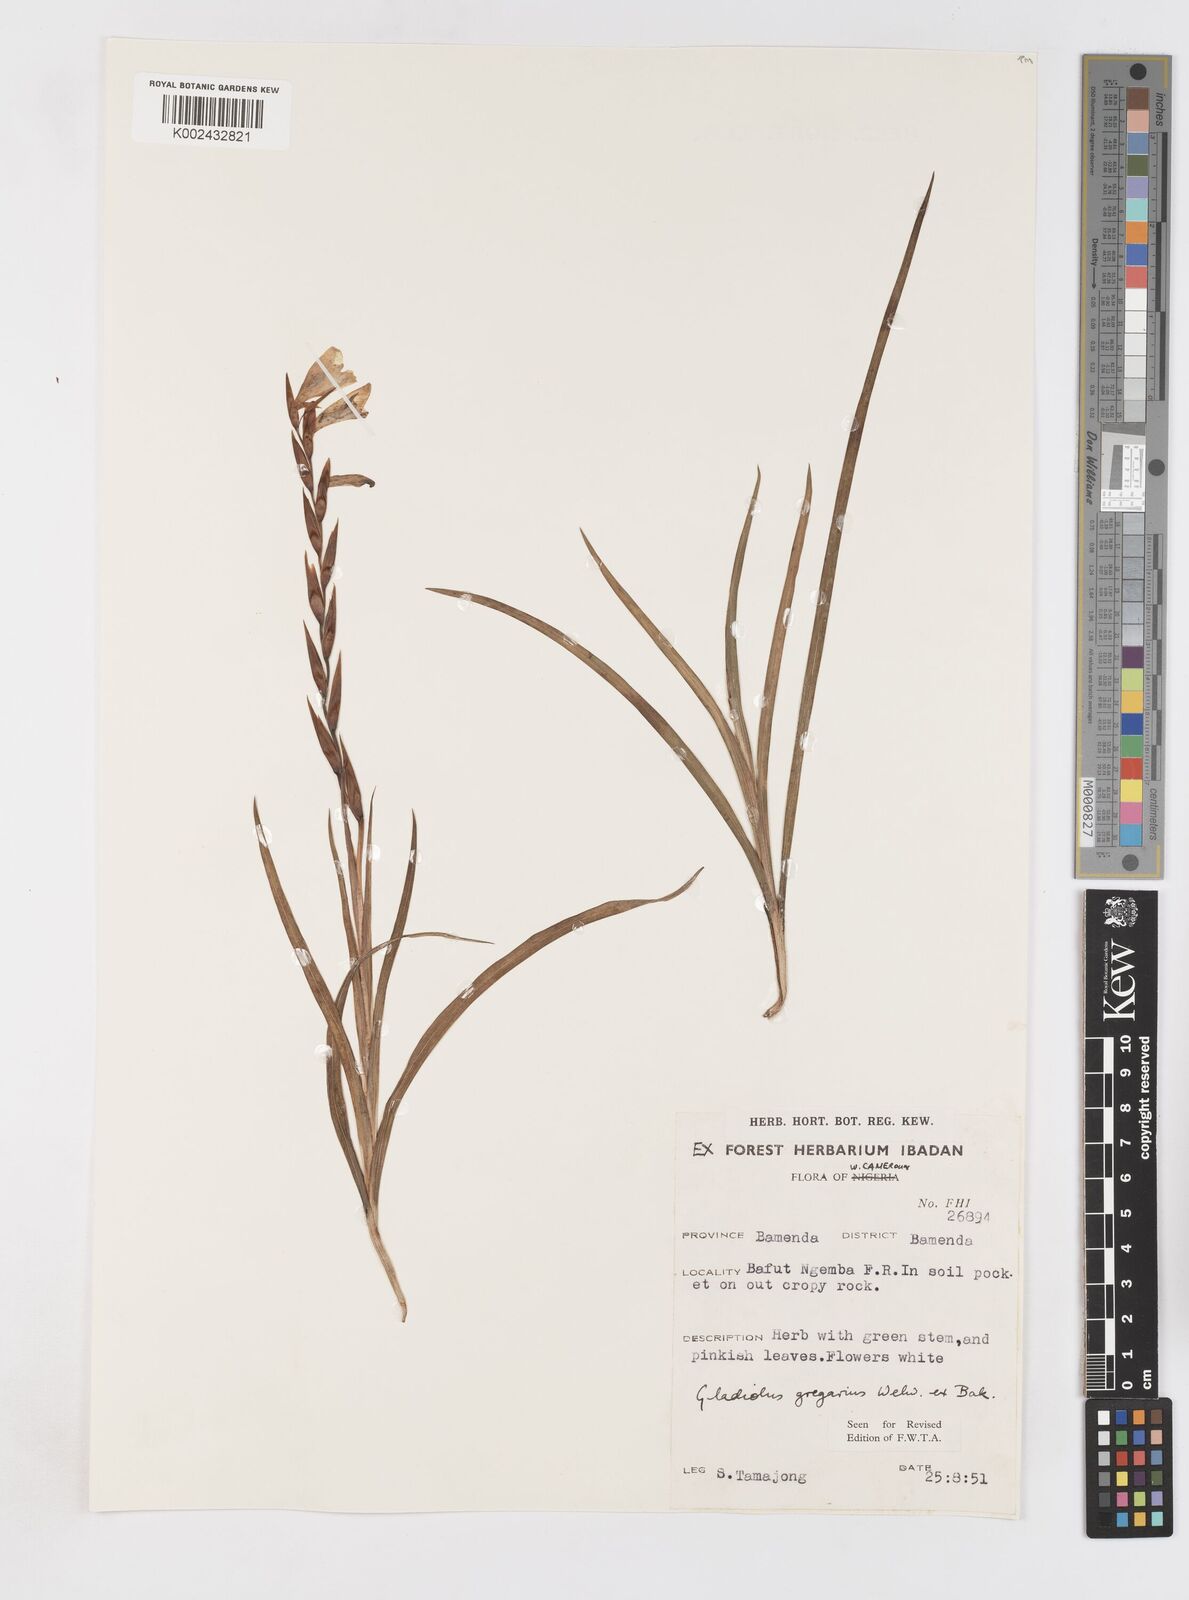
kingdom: Plantae
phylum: Tracheophyta
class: Liliopsida
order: Asparagales
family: Iridaceae
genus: Gladiolus
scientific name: Gladiolus gregarius
